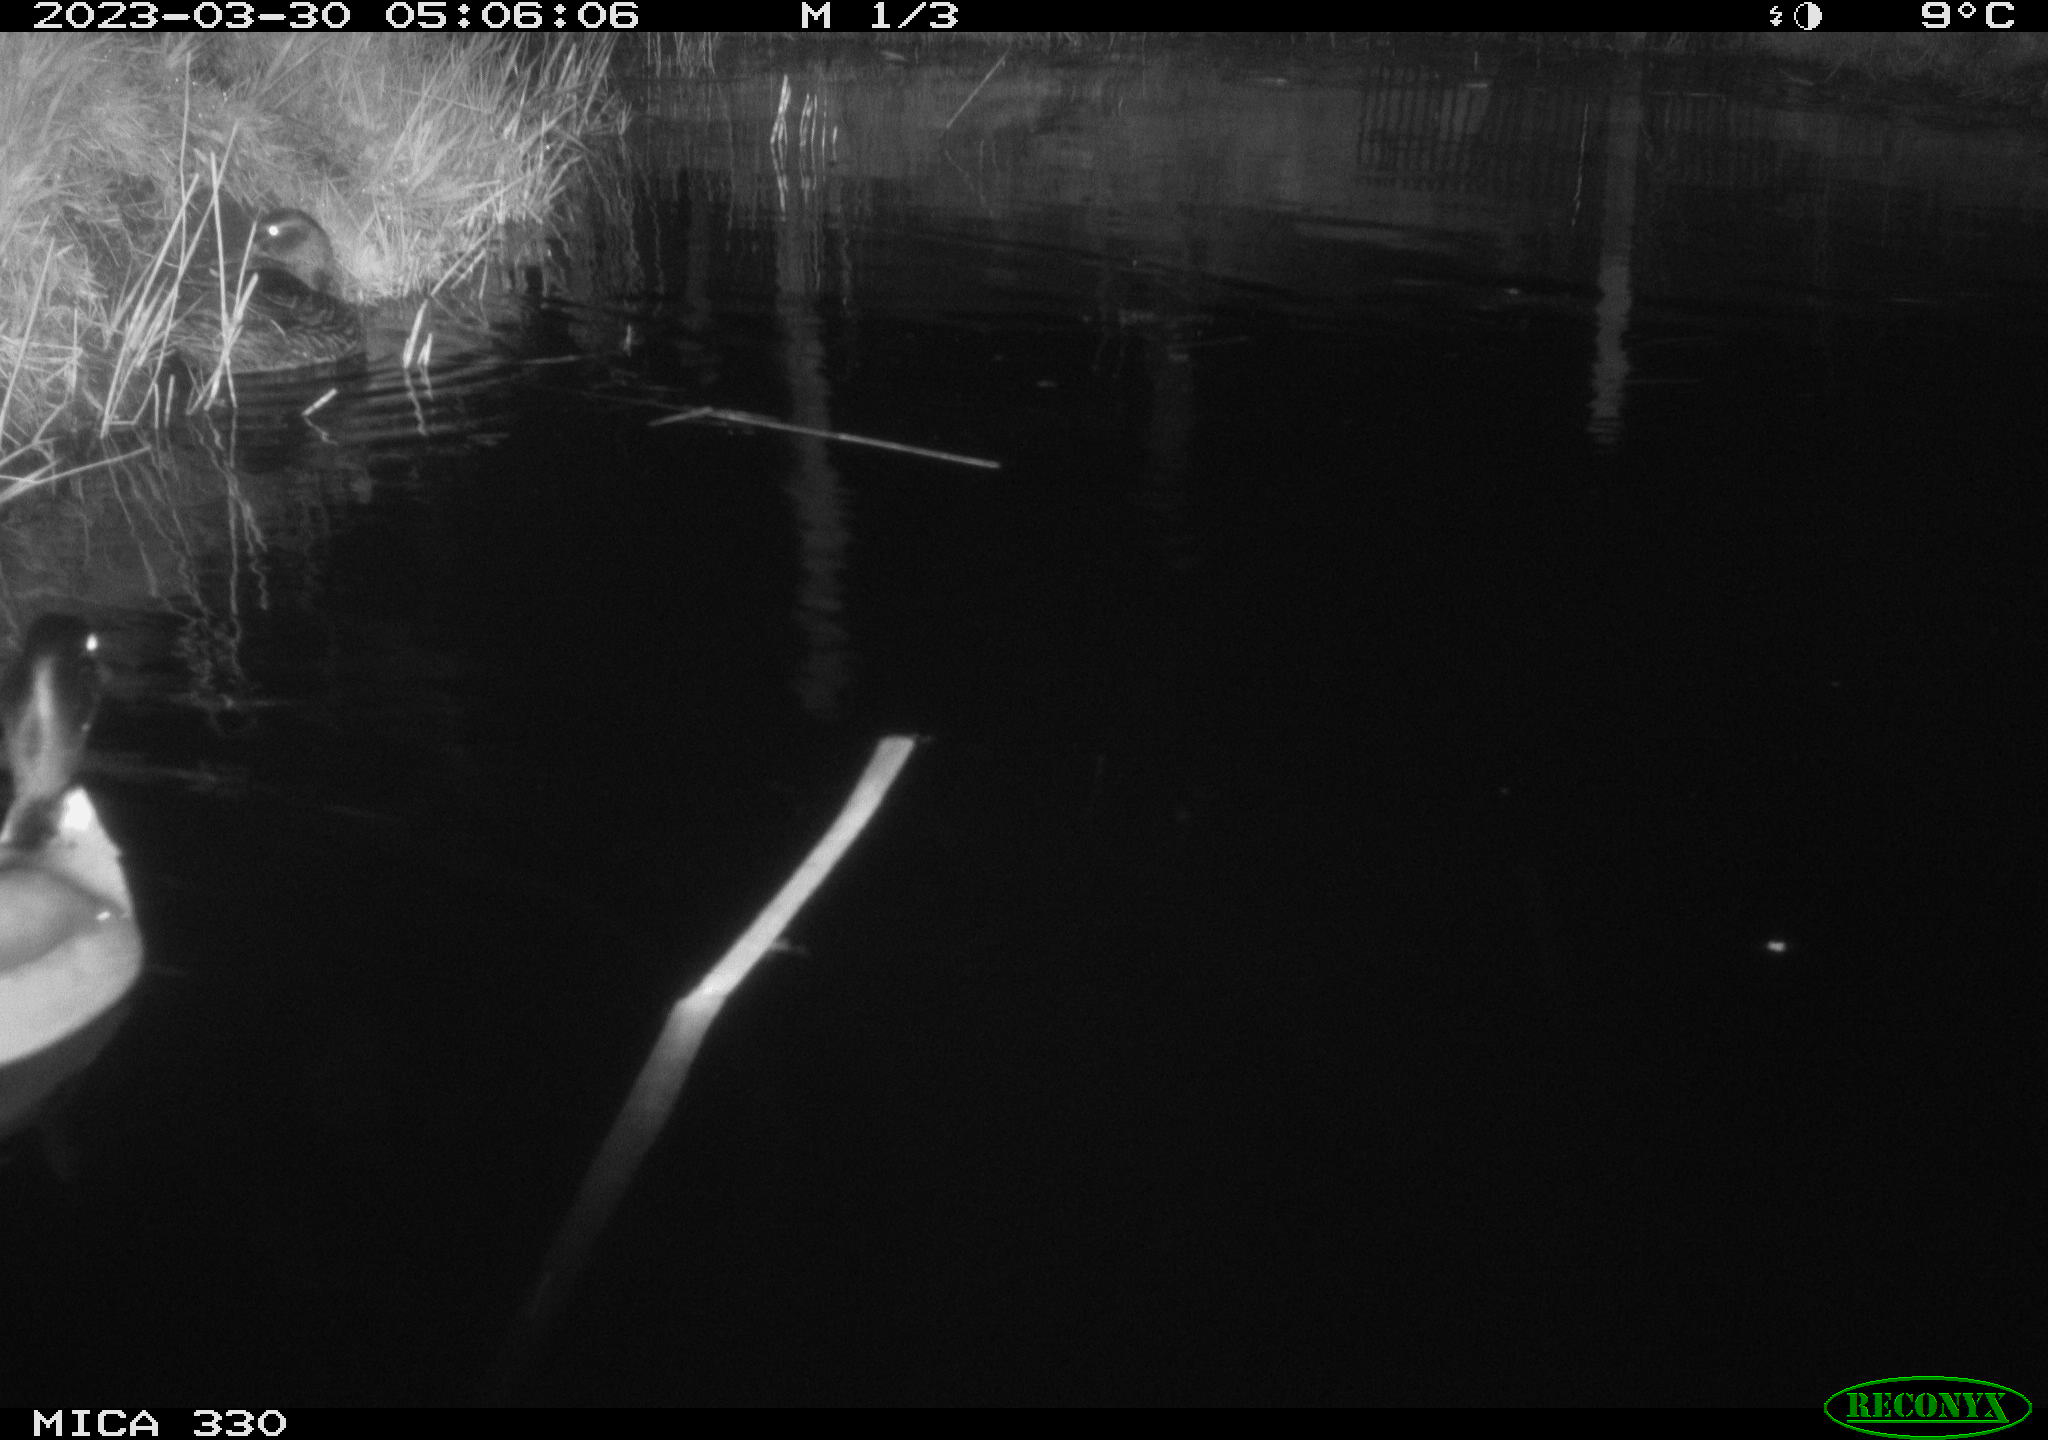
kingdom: Animalia
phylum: Chordata
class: Aves
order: Anseriformes
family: Anatidae
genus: Anas
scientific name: Anas
